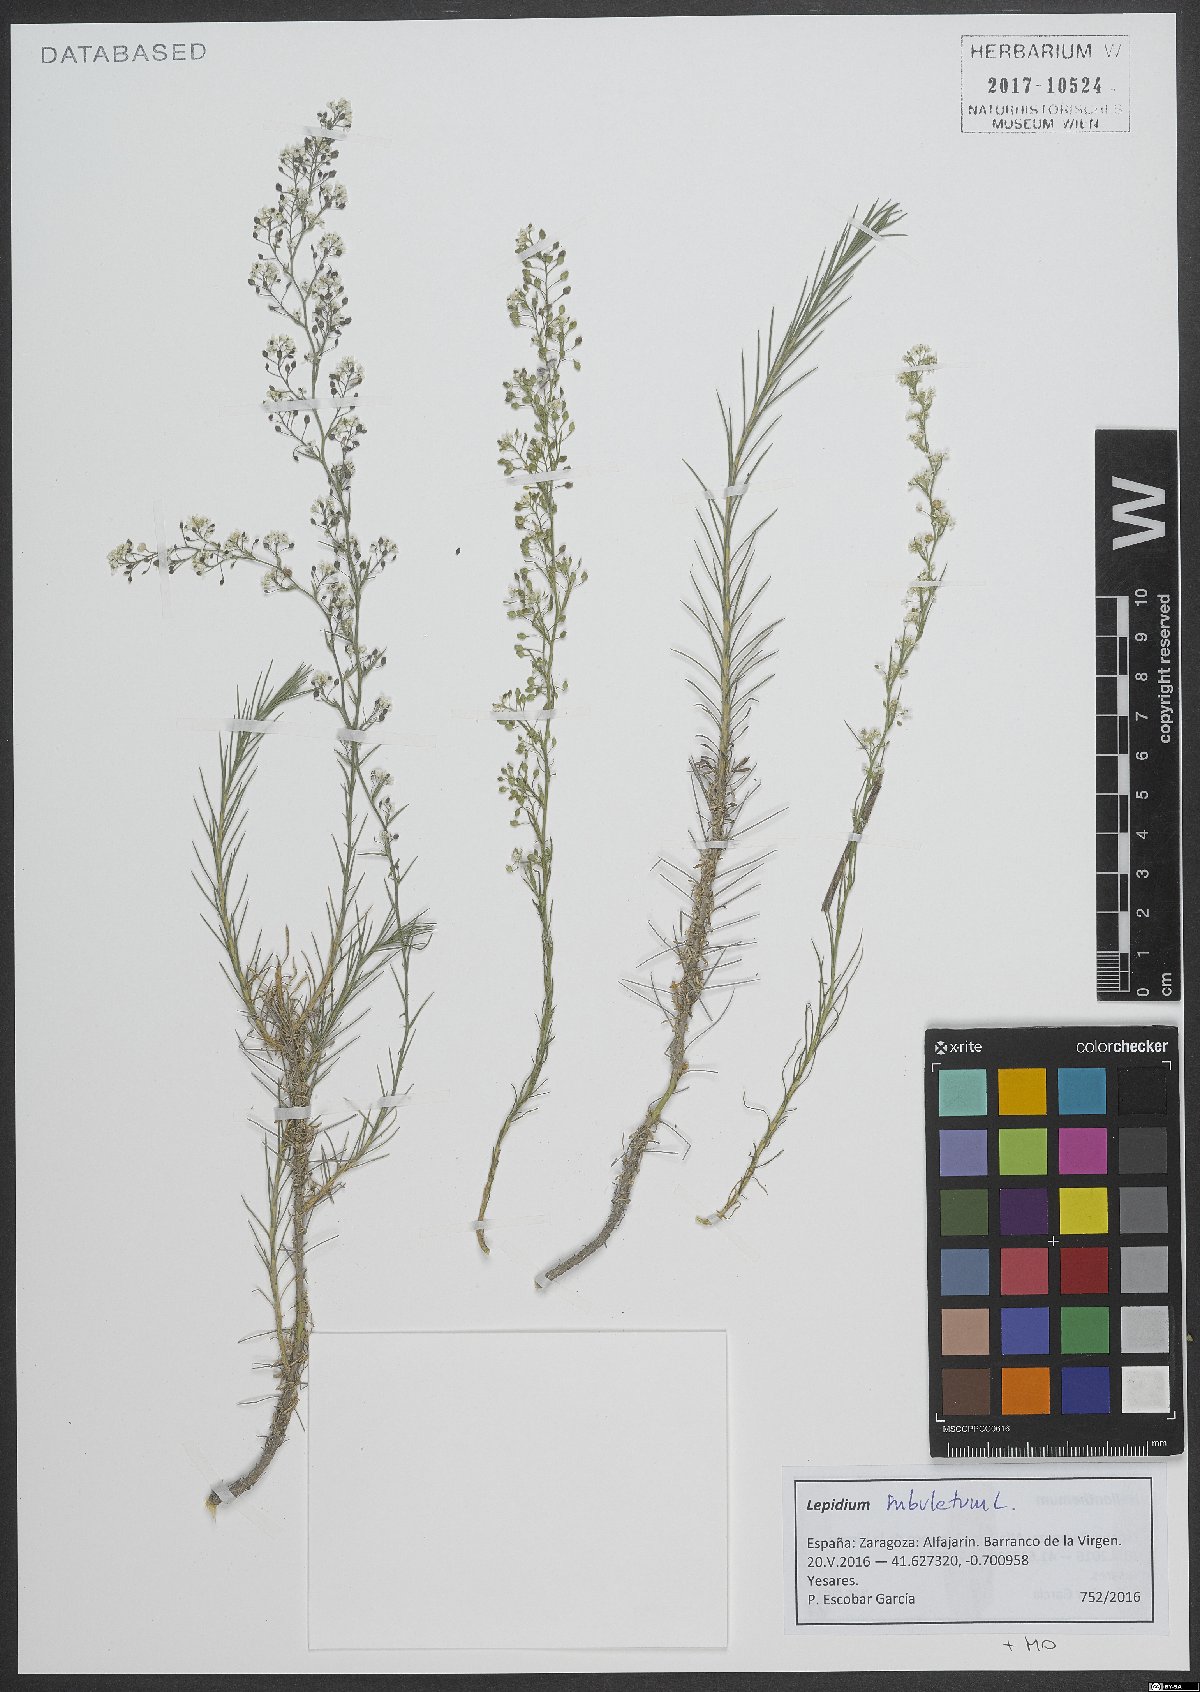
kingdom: Plantae
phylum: Tracheophyta
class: Magnoliopsida
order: Brassicales
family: Brassicaceae
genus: Lepidium
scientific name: Lepidium subulatum
